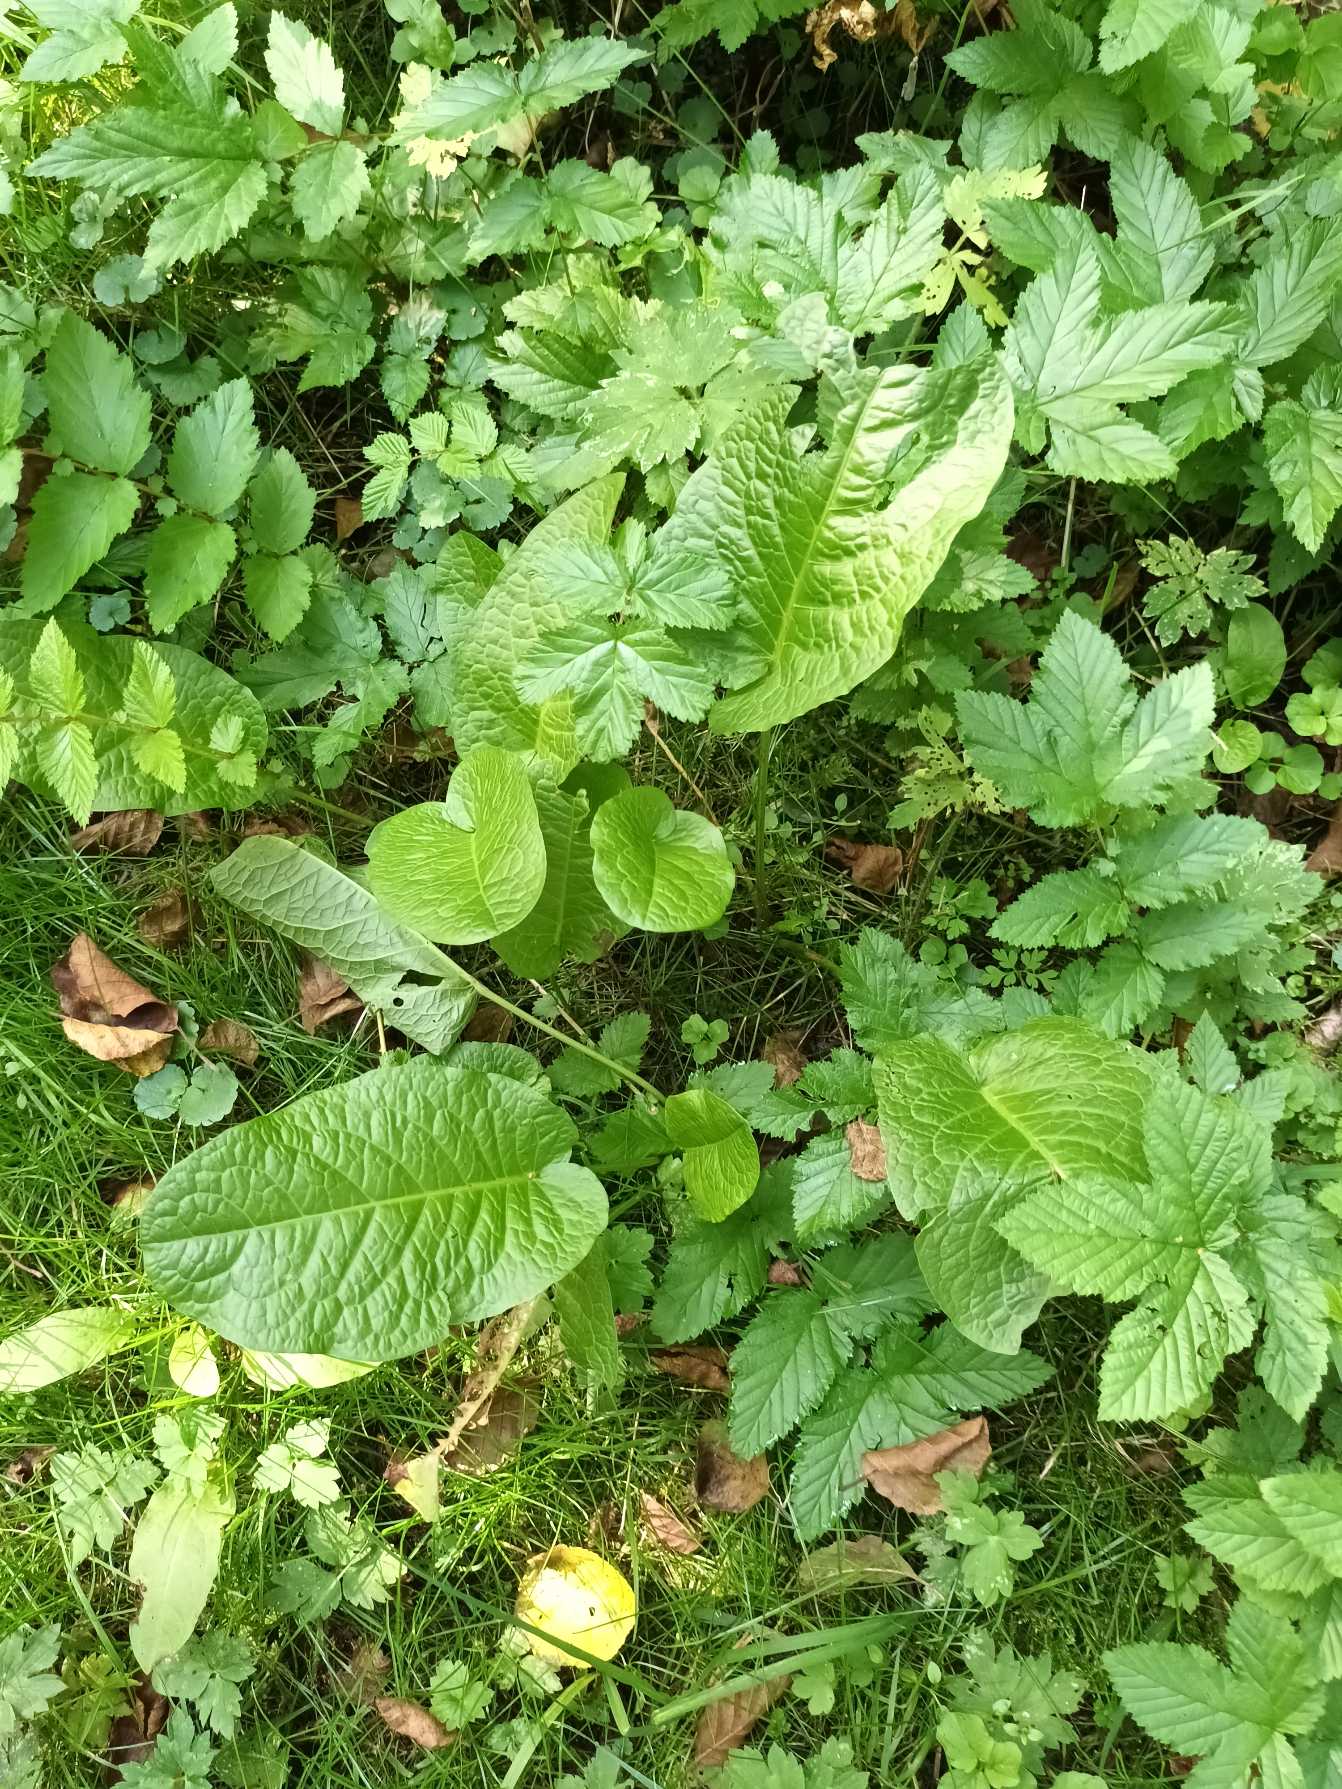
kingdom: Plantae
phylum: Tracheophyta
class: Magnoliopsida
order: Caryophyllales
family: Polygonaceae
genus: Rumex
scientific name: Rumex obtusifolius
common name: Butbladet skræppe
